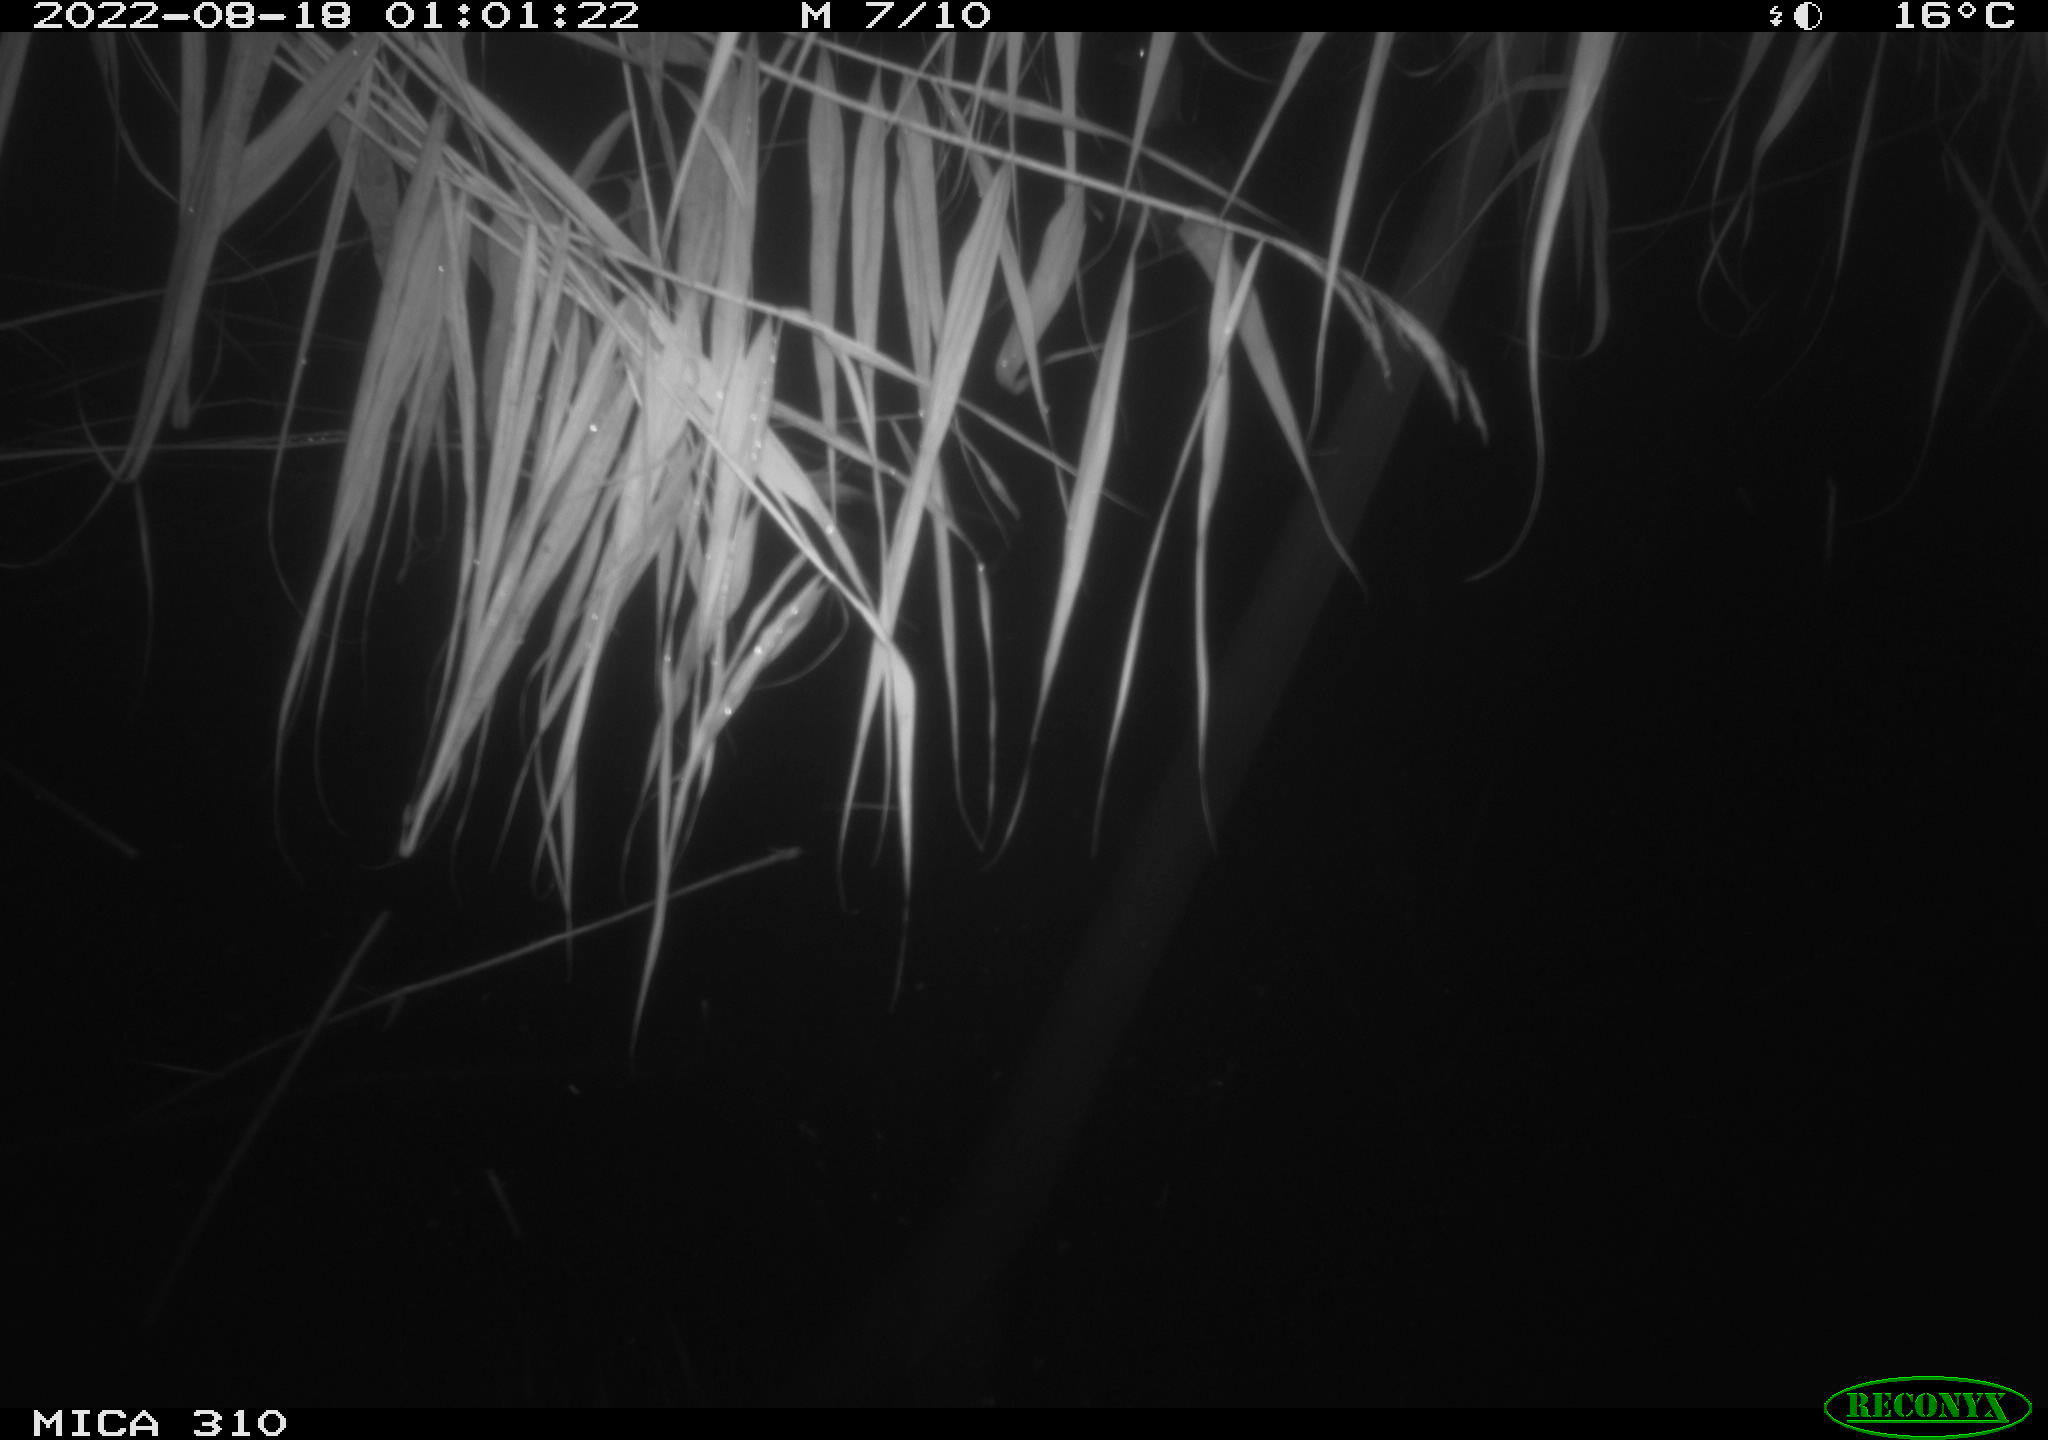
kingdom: Animalia
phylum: Chordata
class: Aves
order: Anseriformes
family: Anatidae
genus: Anas
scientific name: Anas platyrhynchos
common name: Mallard
